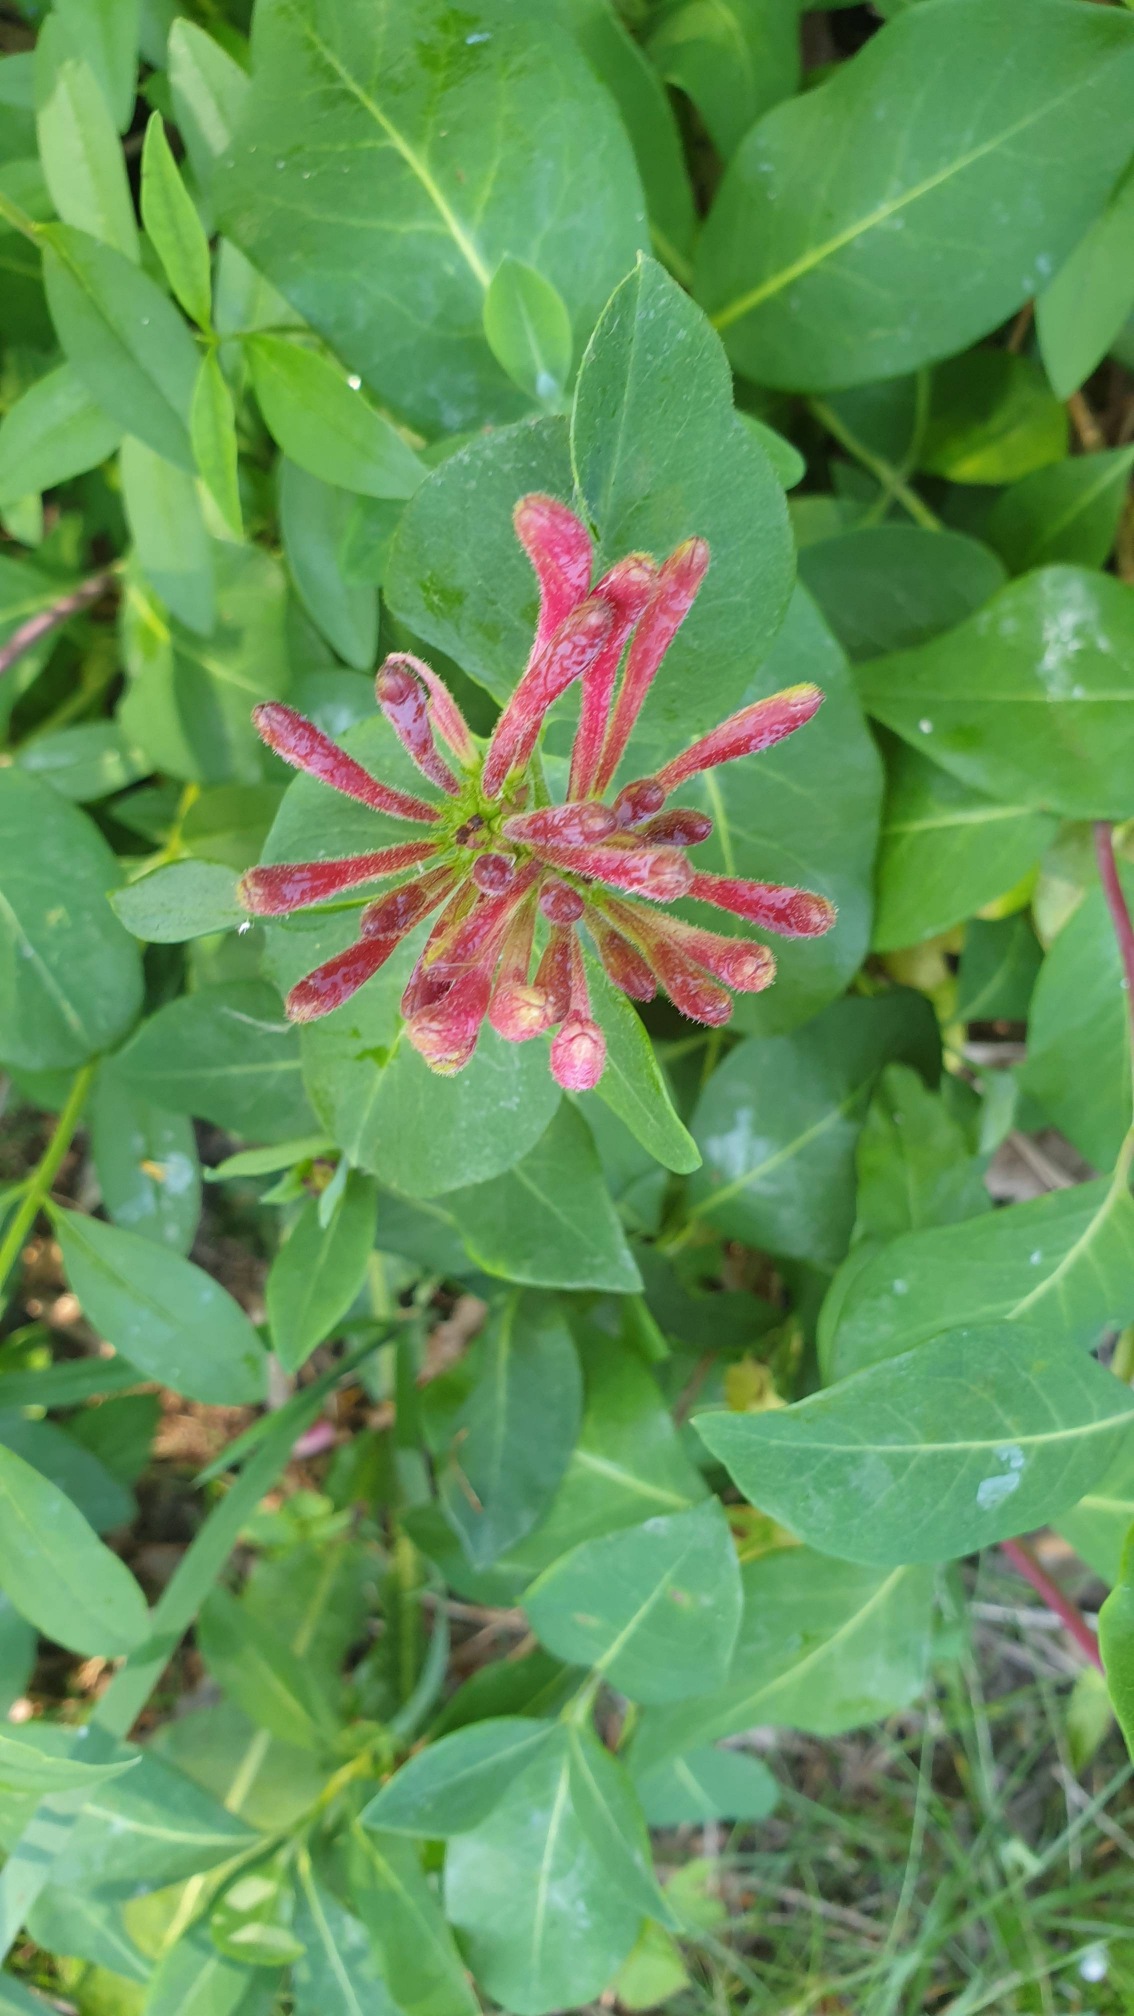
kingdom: Plantae
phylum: Tracheophyta
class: Magnoliopsida
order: Dipsacales
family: Caprifoliaceae
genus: Lonicera
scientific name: Lonicera periclymenum
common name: Almindelig gedeblad
